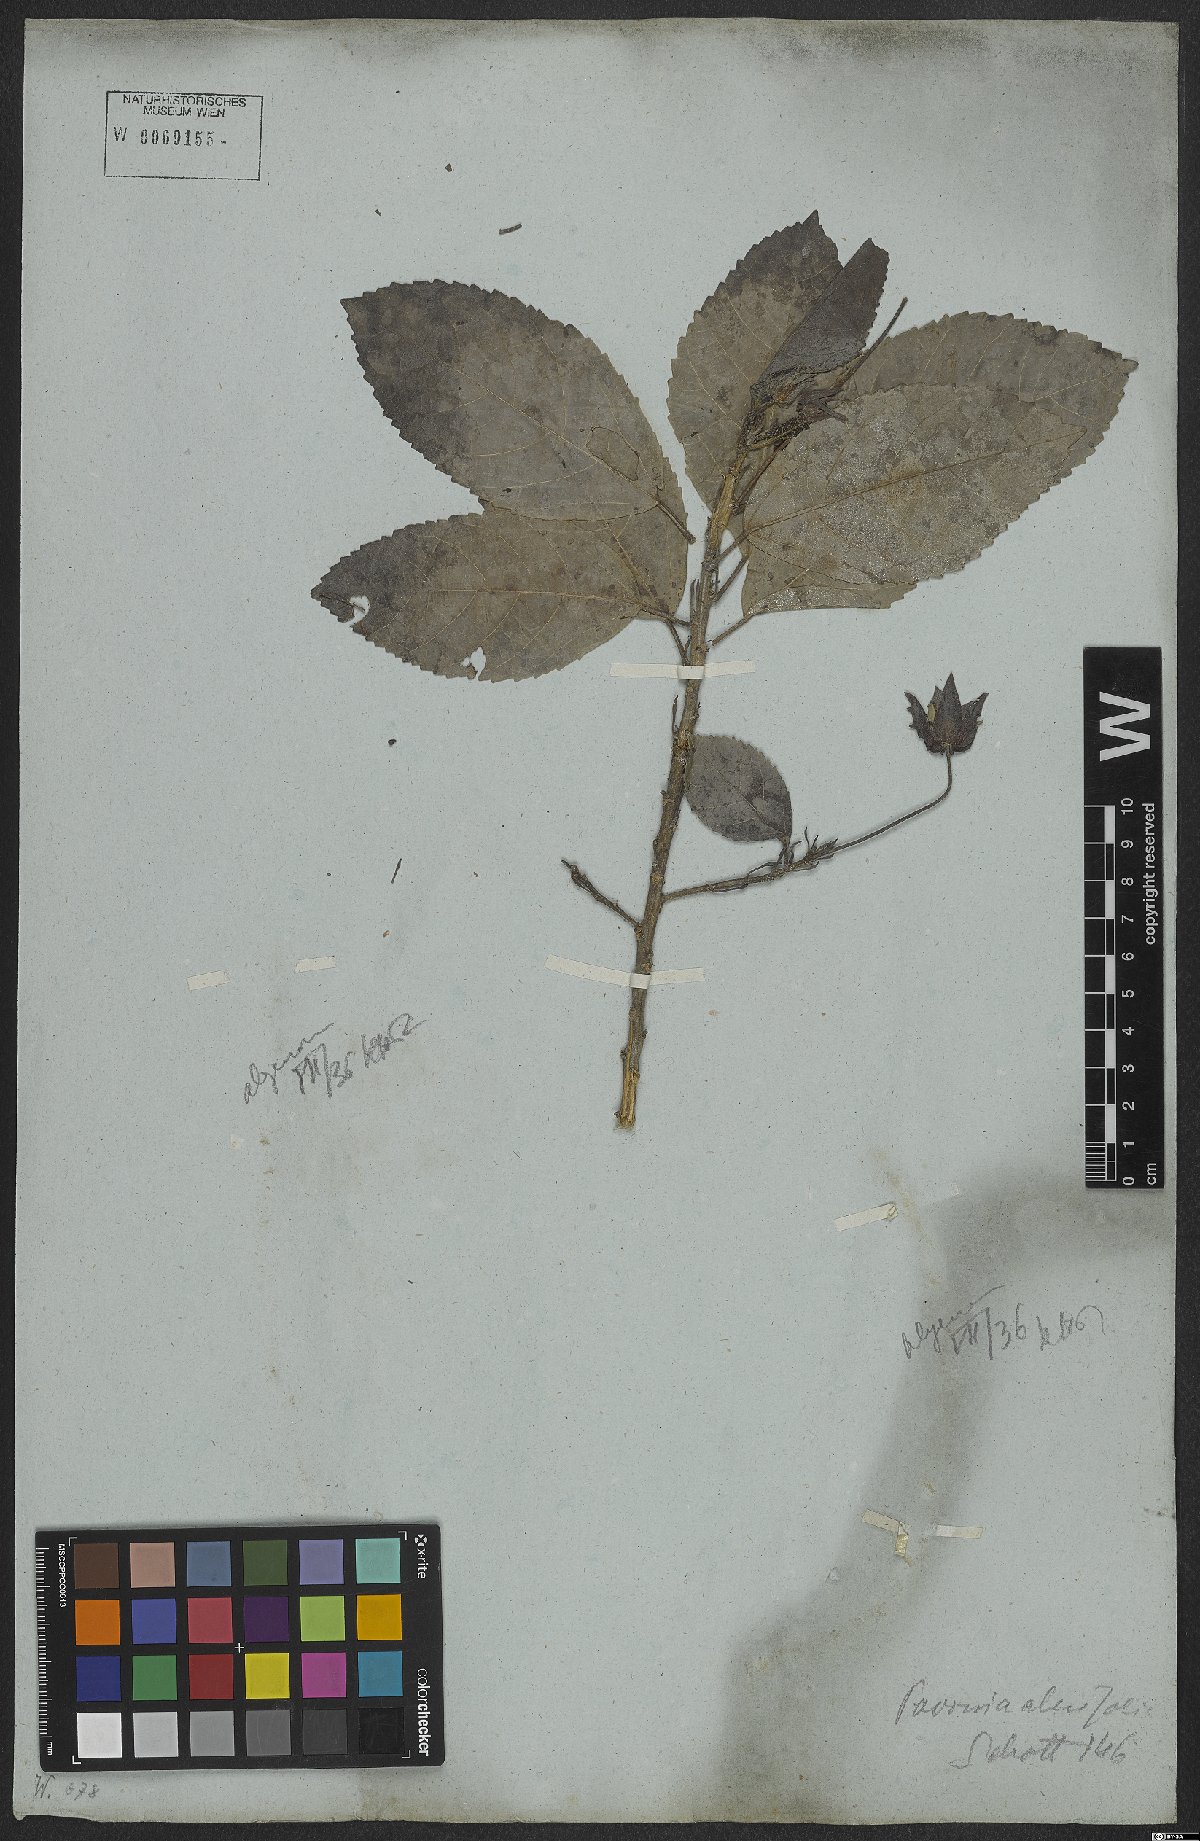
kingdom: Plantae
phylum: Tracheophyta
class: Magnoliopsida
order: Malvales
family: Malvaceae
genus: Pavonia
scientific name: Pavonia alnifolia
